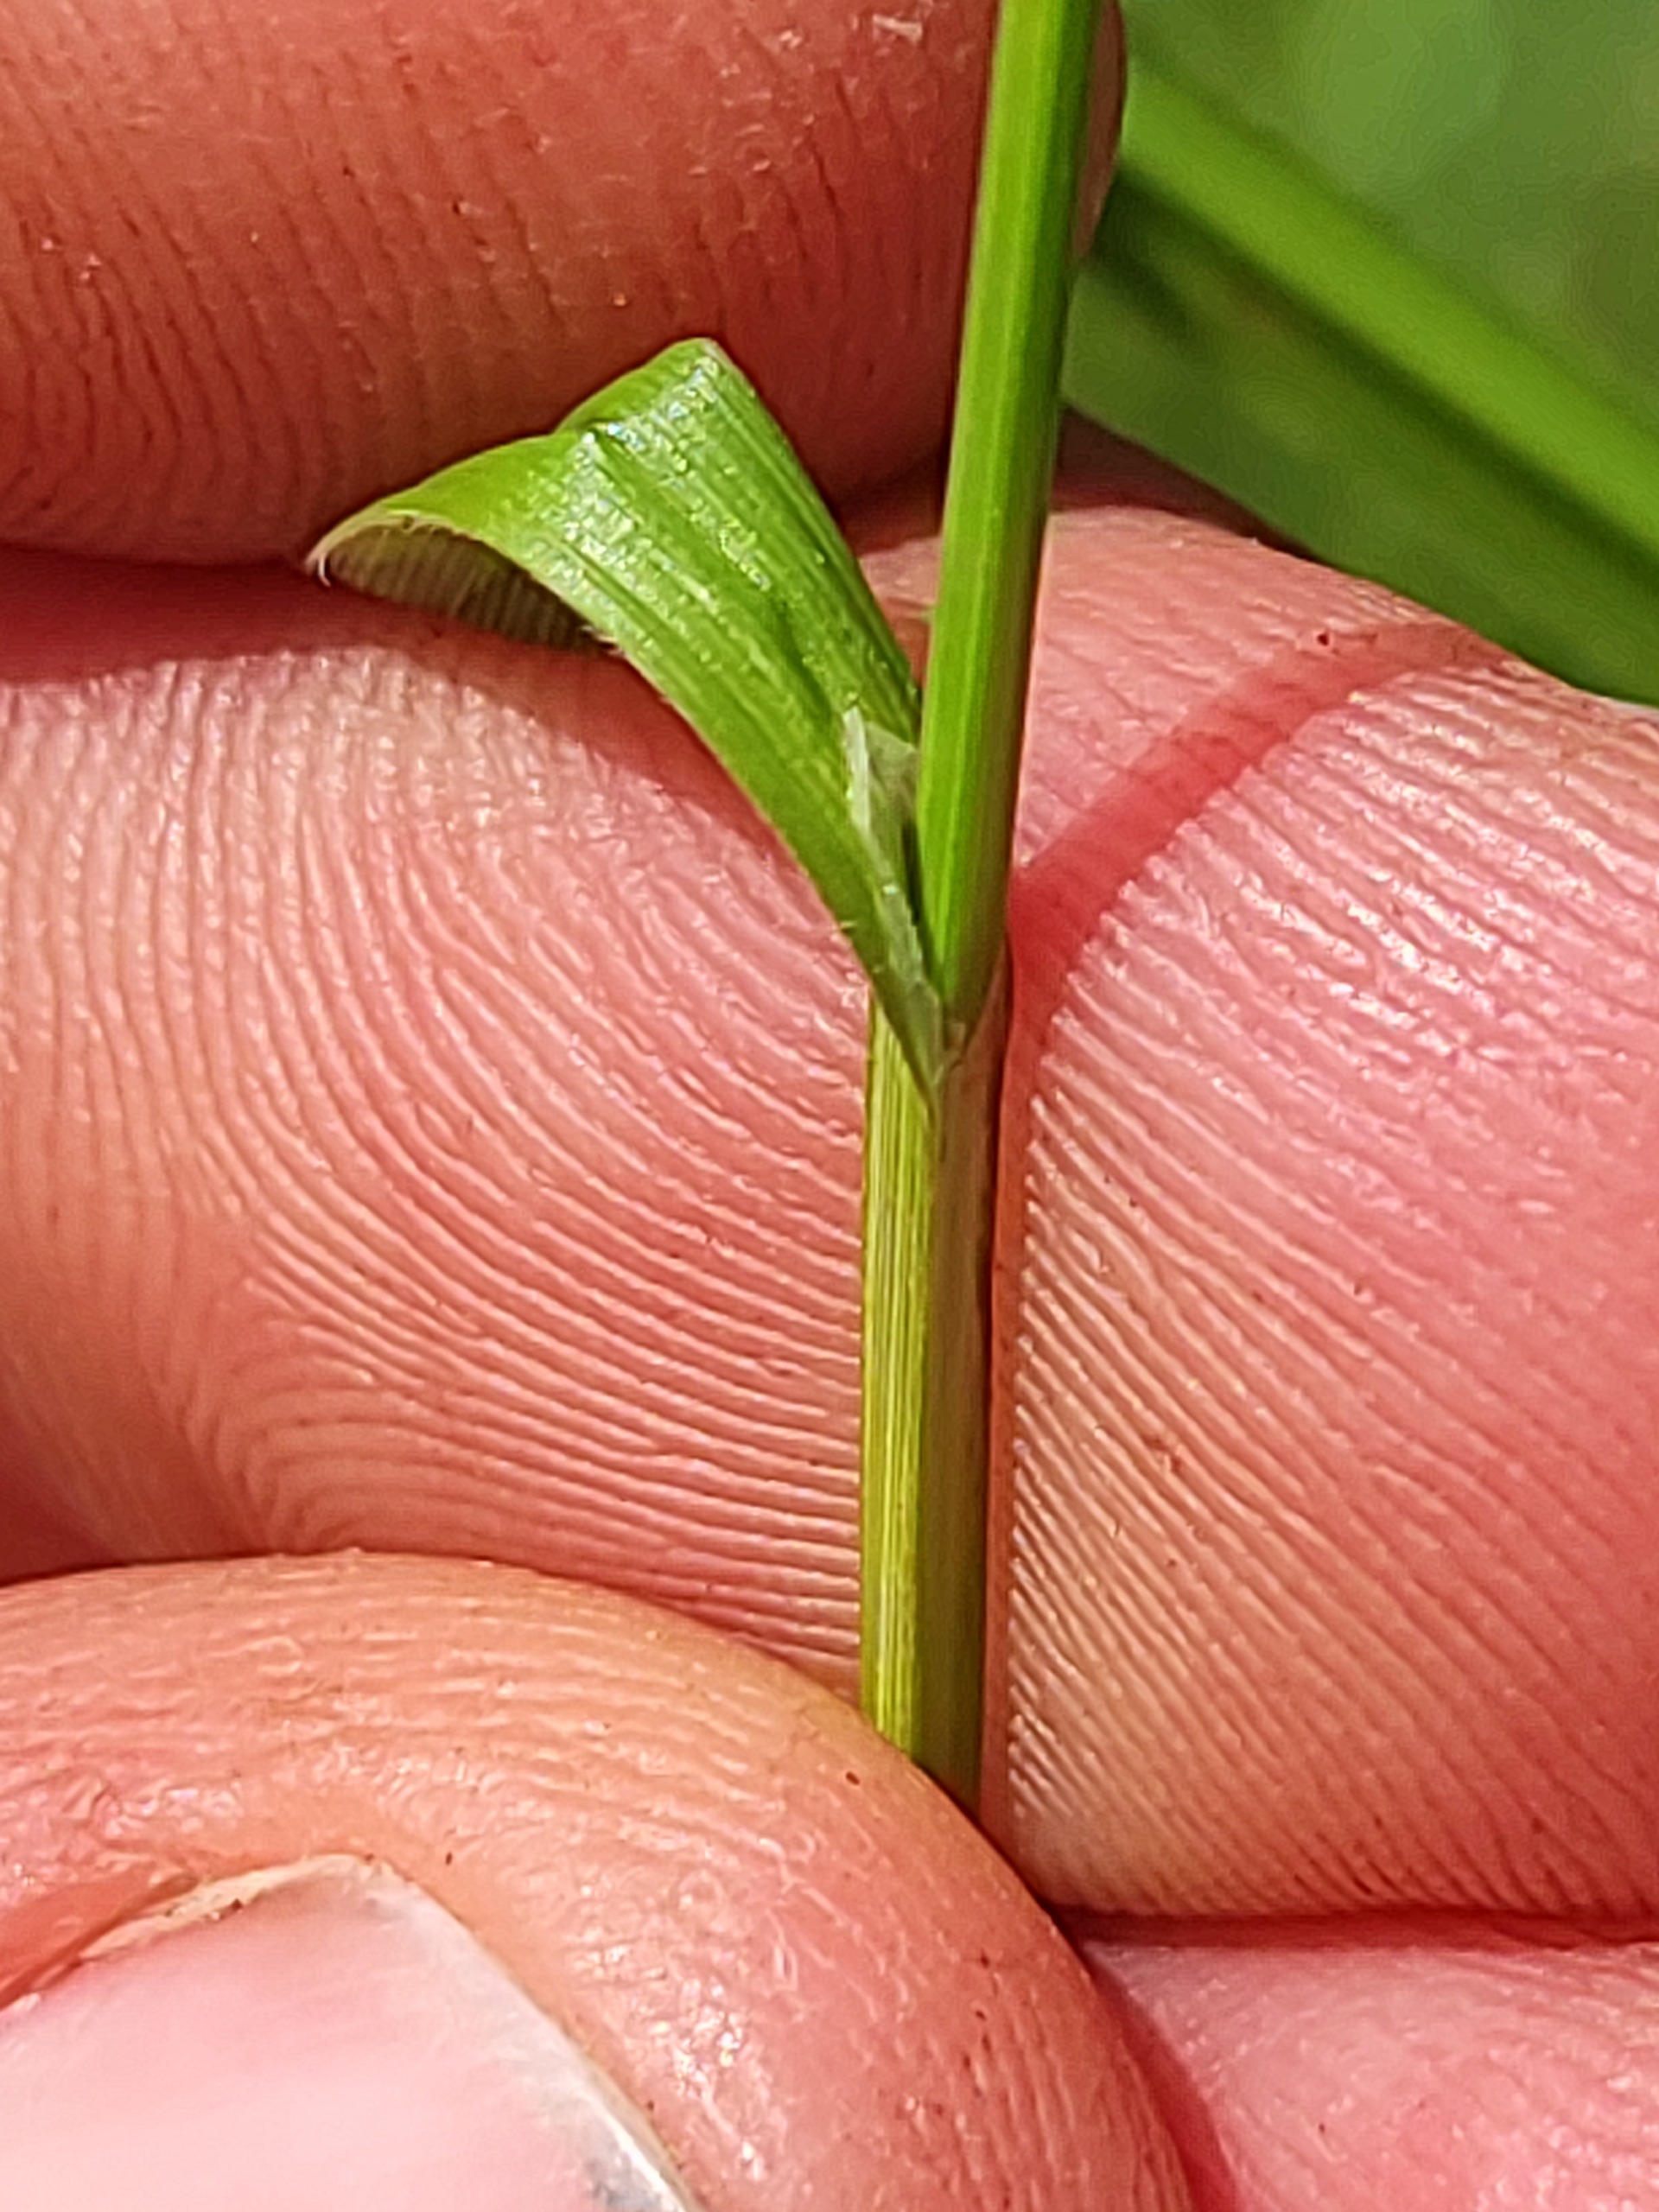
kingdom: Plantae
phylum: Tracheophyta
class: Liliopsida
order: Poales
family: Cyperaceae
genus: Carex
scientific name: Carex pallescens
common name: Bleg star
